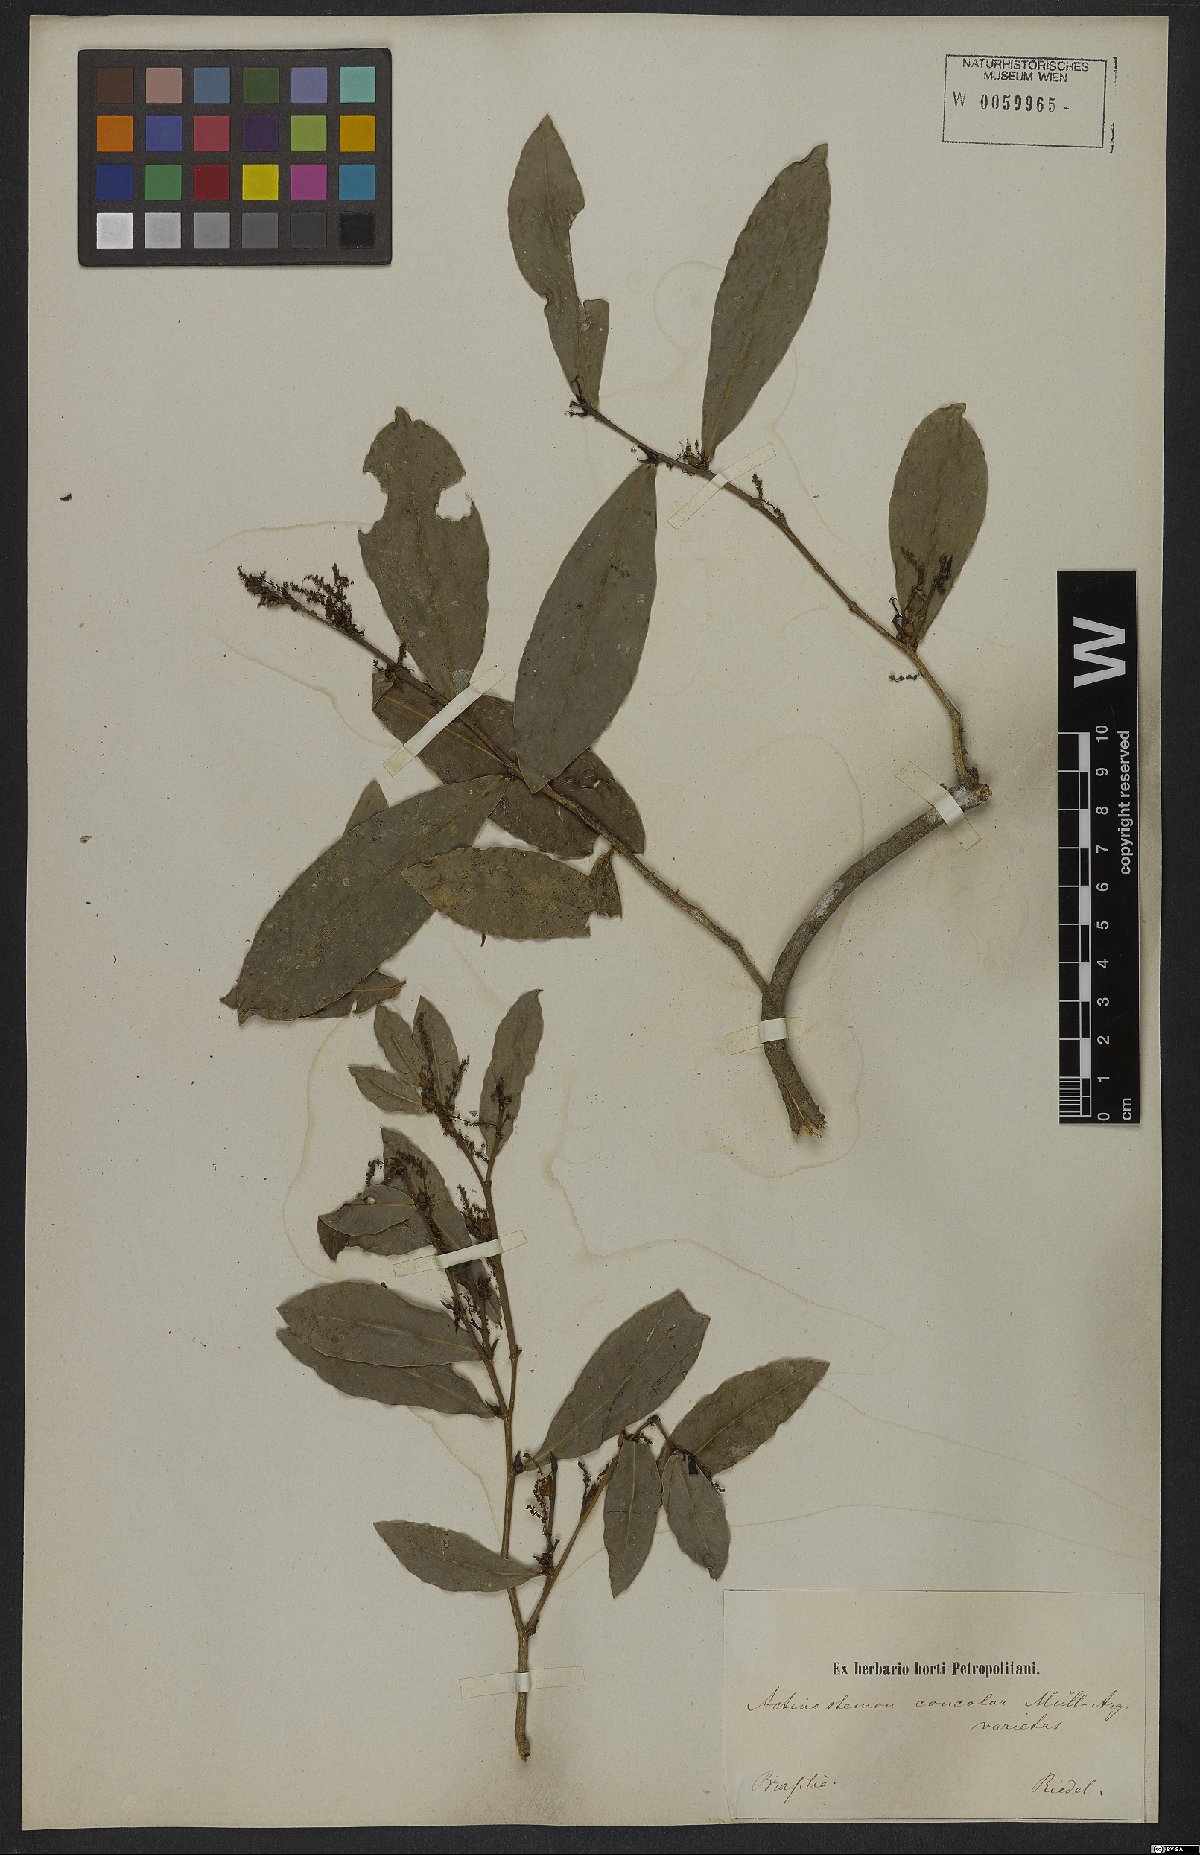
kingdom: Plantae
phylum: Tracheophyta
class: Magnoliopsida
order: Malpighiales
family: Euphorbiaceae
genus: Actinostemon
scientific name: Actinostemon concolor
